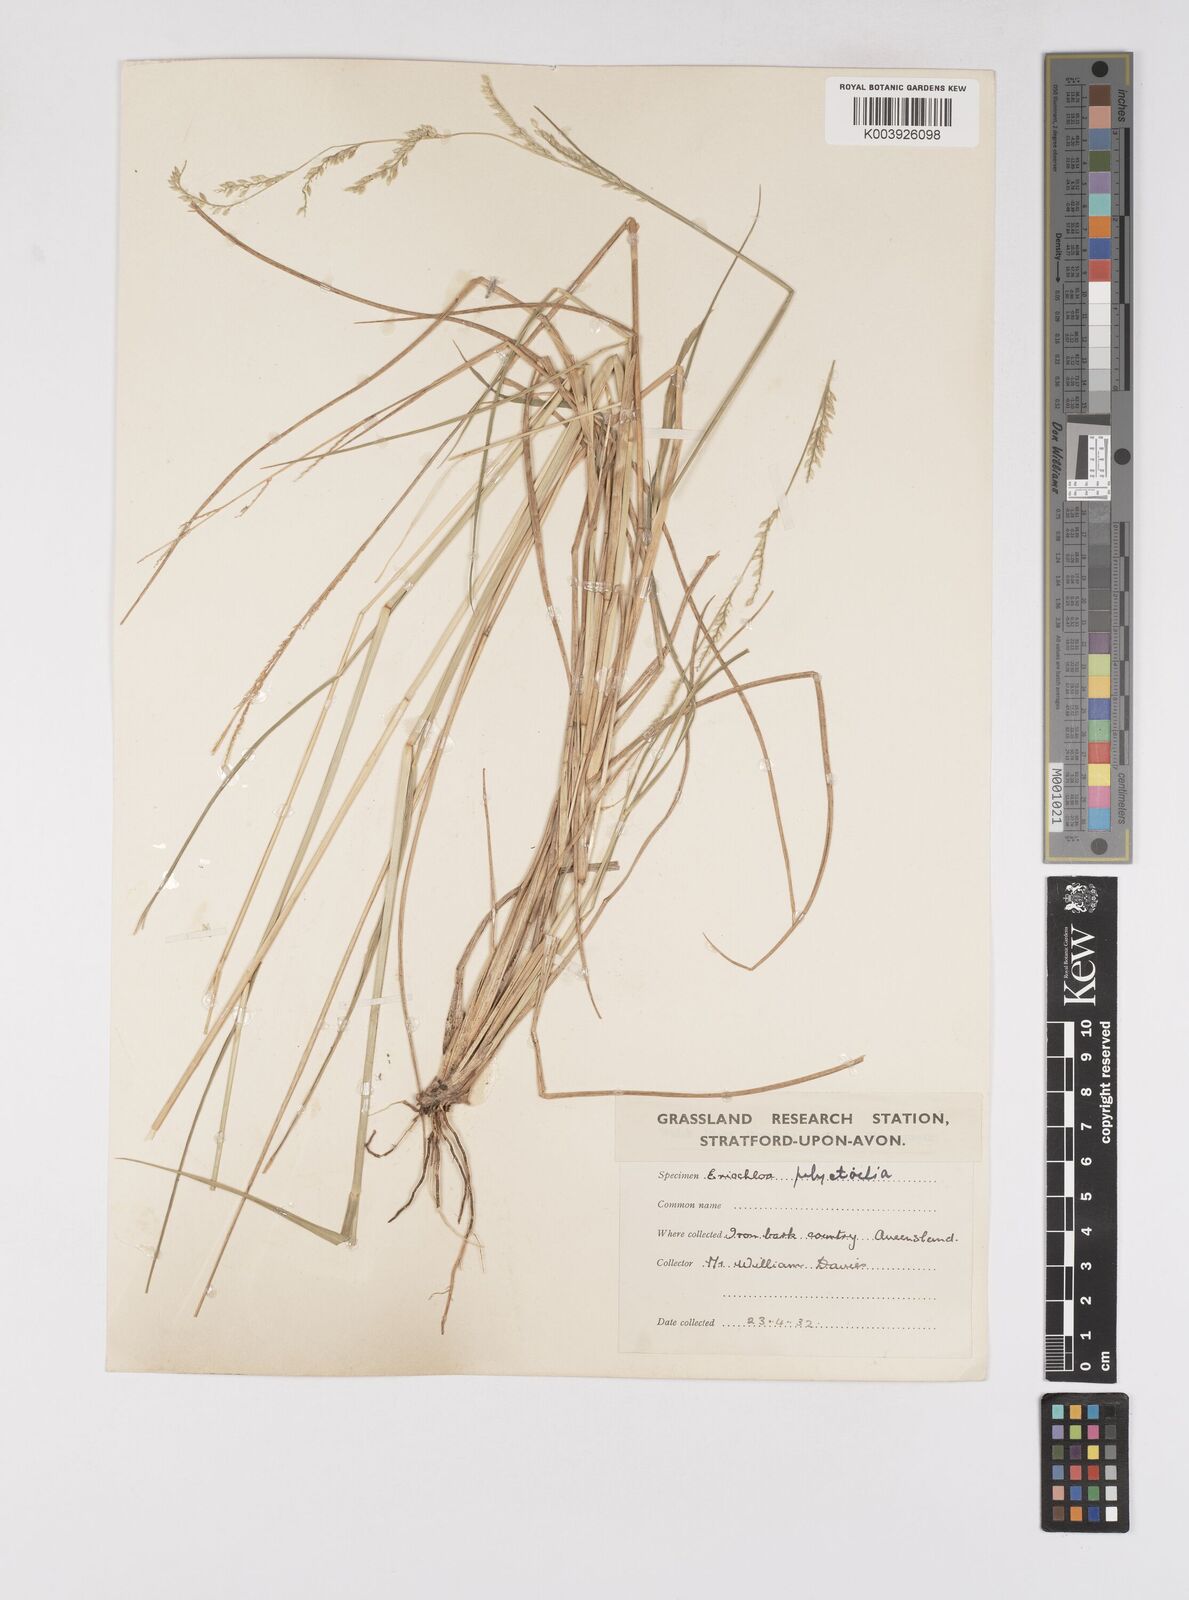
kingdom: Plantae
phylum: Tracheophyta
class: Liliopsida
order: Poales
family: Poaceae
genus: Eriochloa
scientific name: Eriochloa
